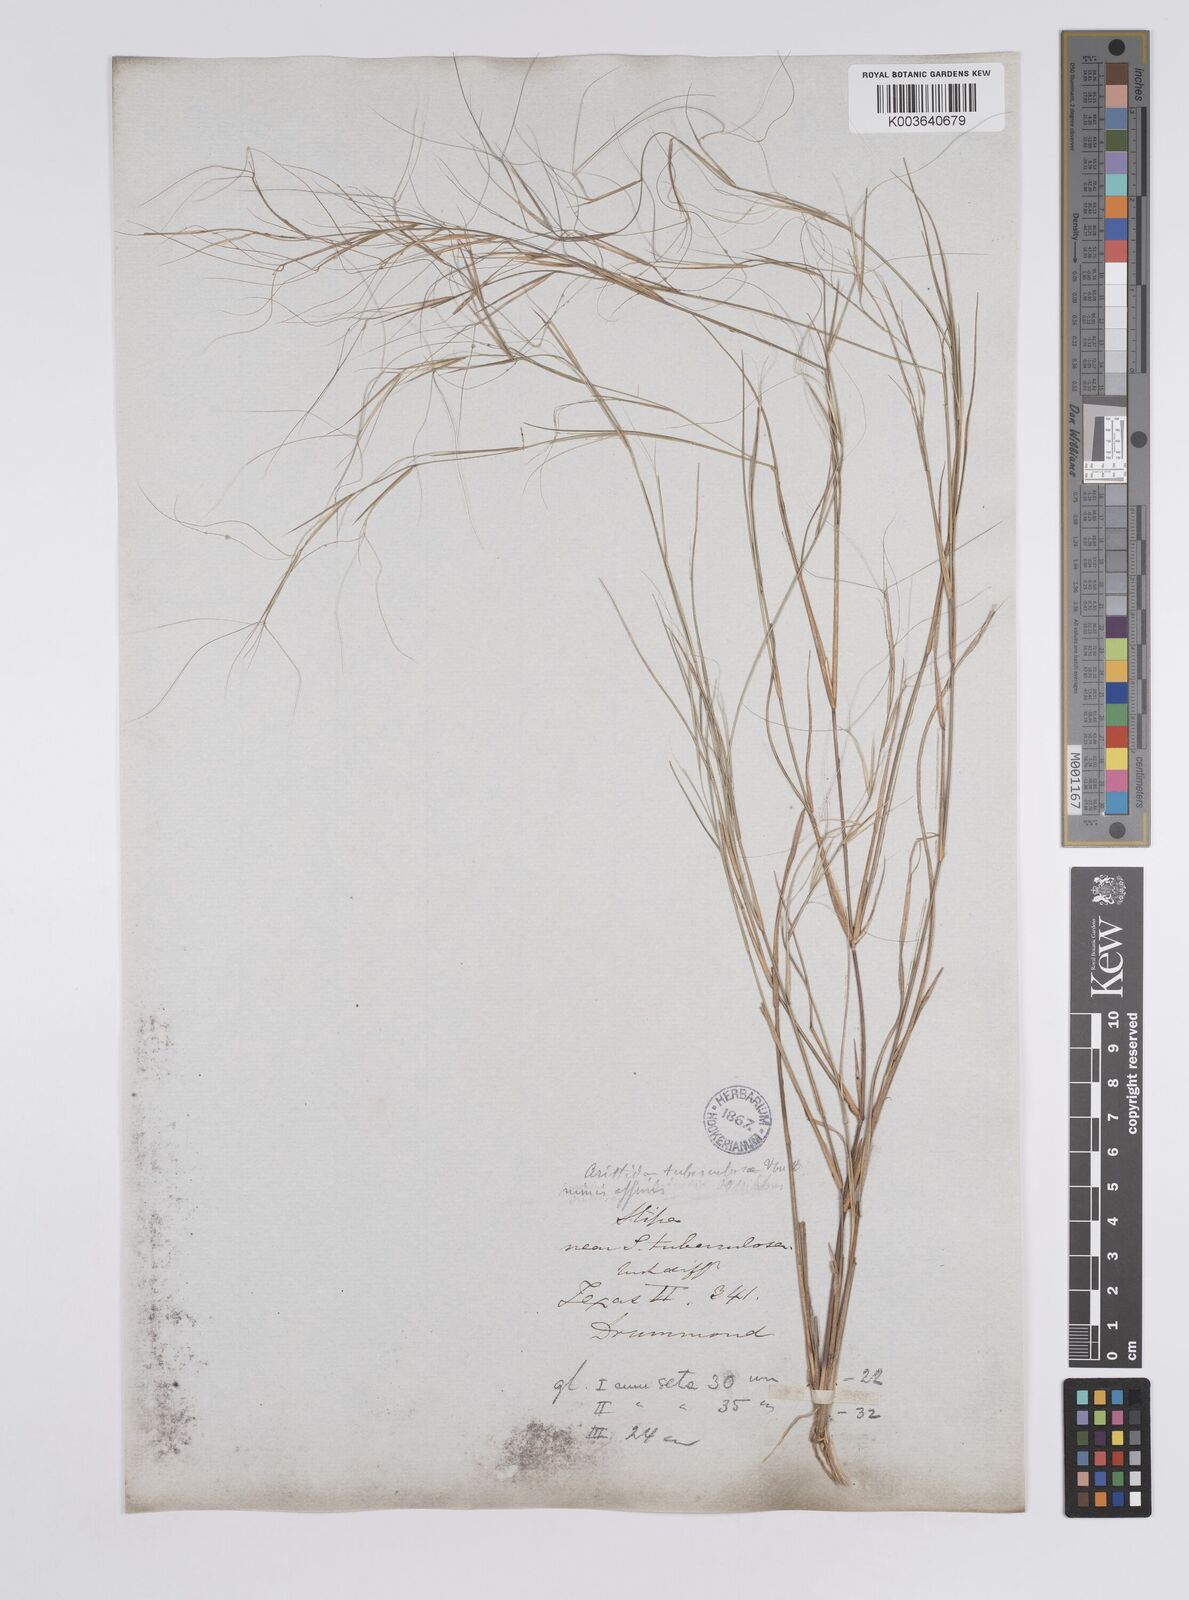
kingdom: Plantae
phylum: Tracheophyta
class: Liliopsida
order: Poales
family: Poaceae
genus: Aristida
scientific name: Aristida oligantha
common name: Few-flowered aristida
